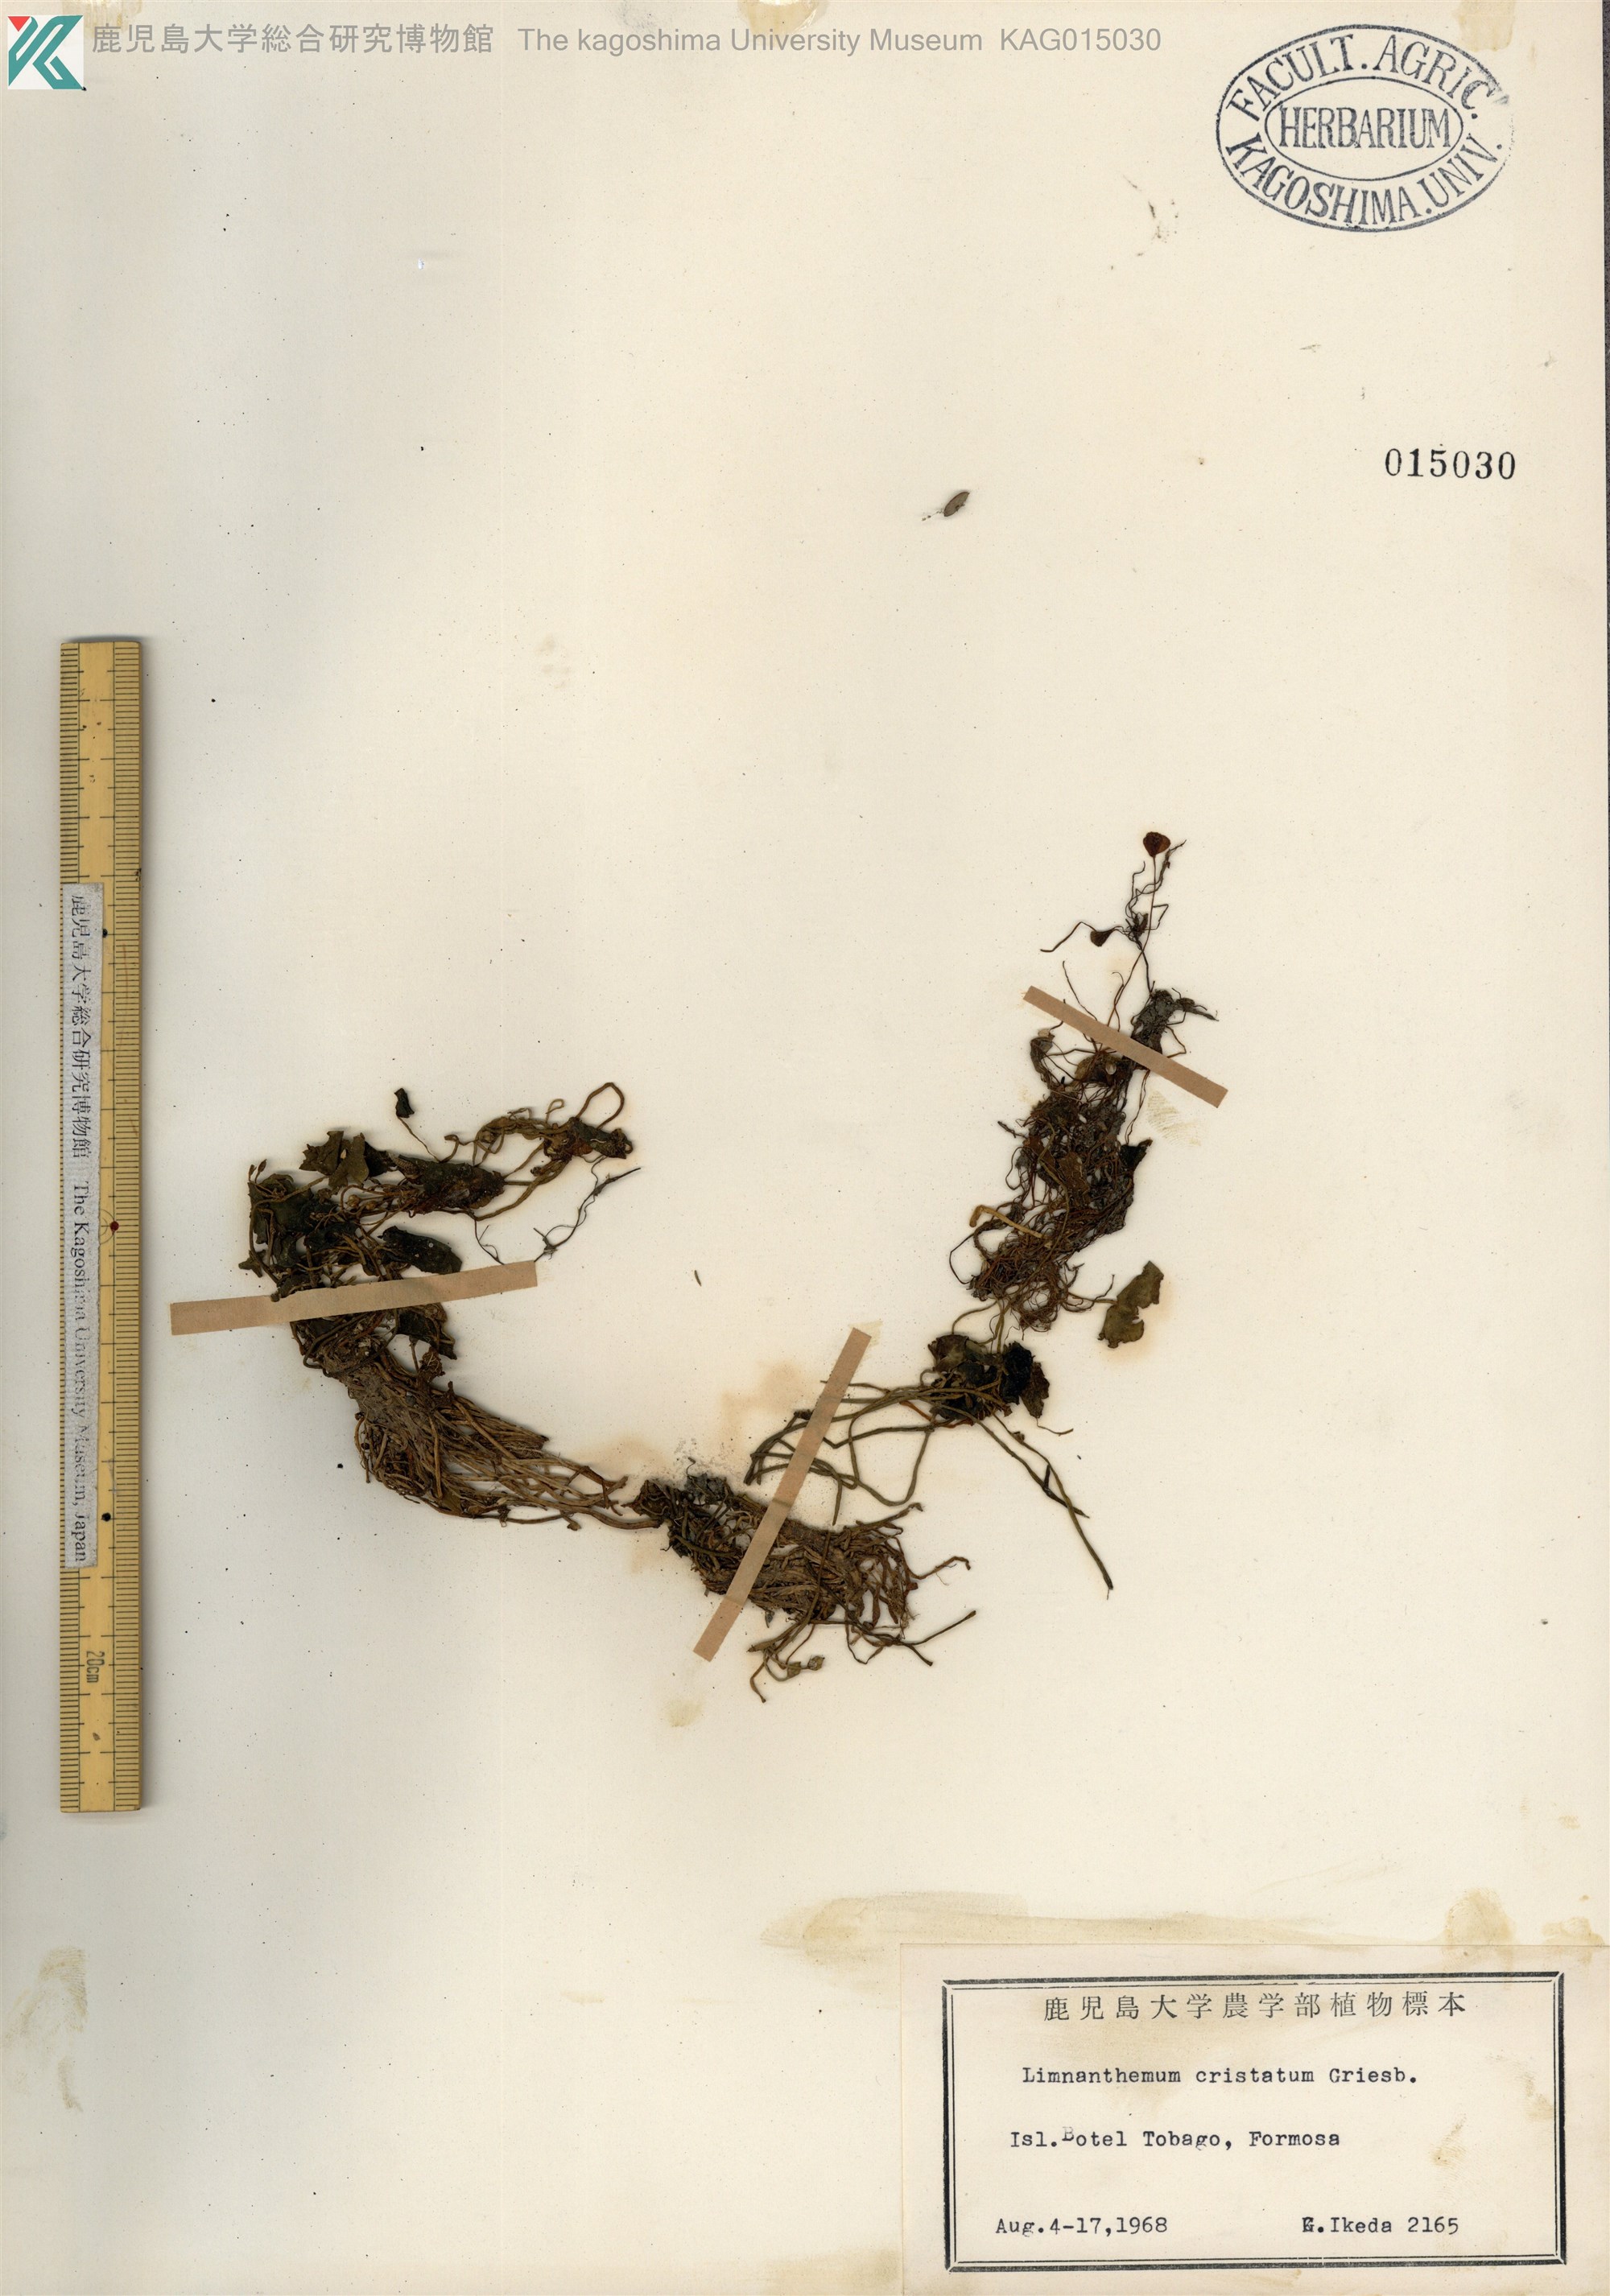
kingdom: Plantae
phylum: Tracheophyta
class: Magnoliopsida
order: Asterales
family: Menyanthaceae
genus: Nymphoides
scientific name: Nymphoides coreana
